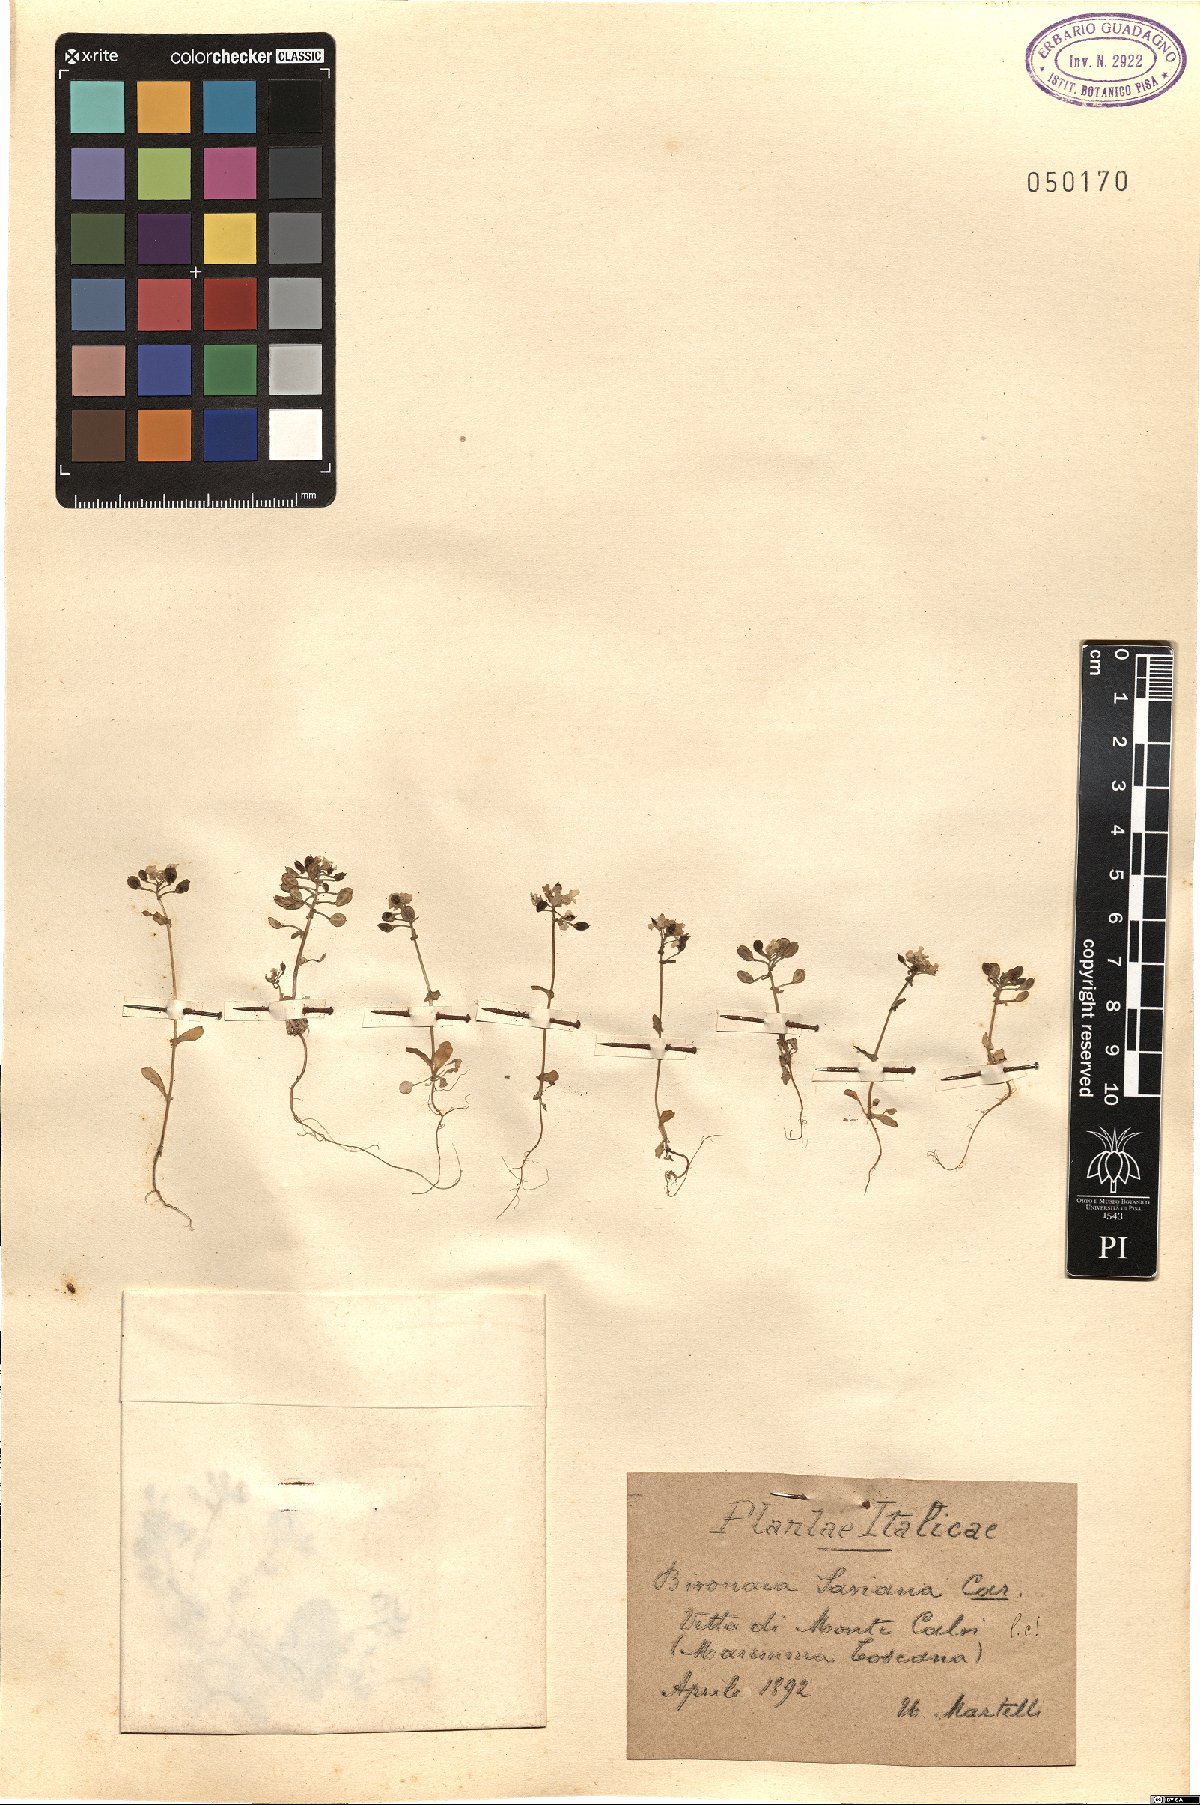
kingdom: Plantae
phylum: Tracheophyta
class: Magnoliopsida
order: Brassicales
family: Brassicaceae
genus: Ionopsidium
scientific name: Ionopsidium savianum
